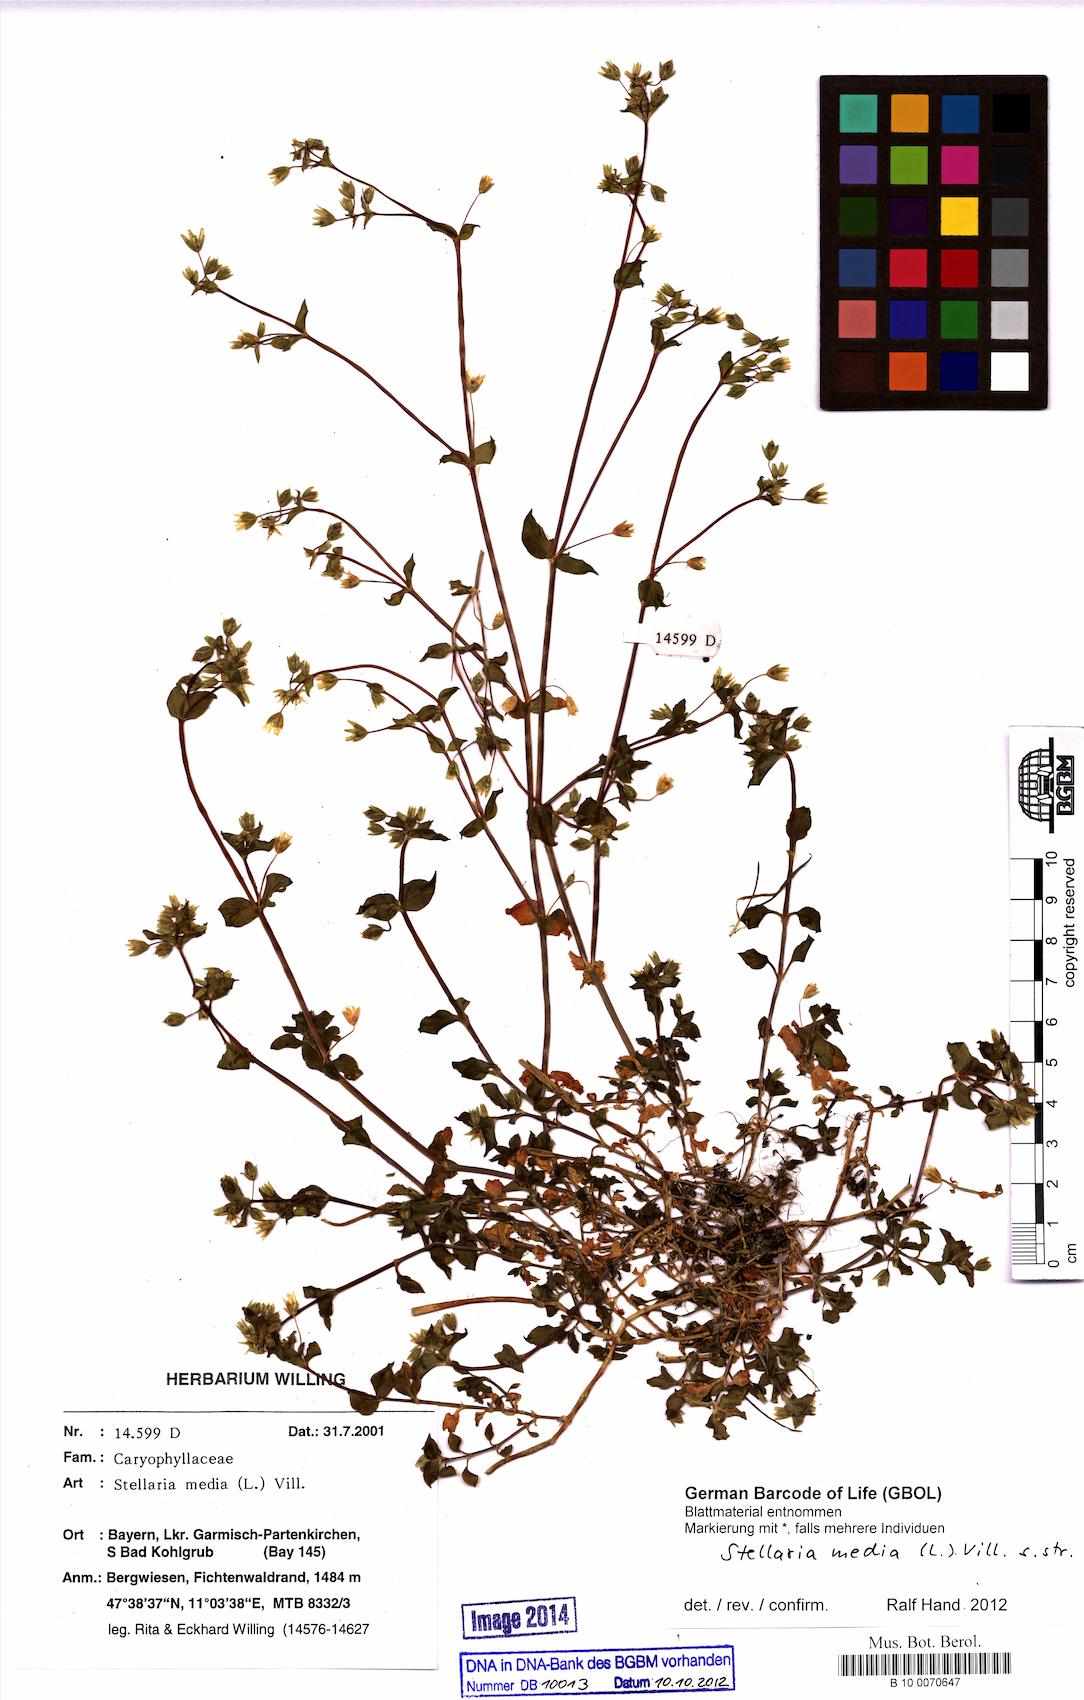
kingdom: Plantae
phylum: Tracheophyta
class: Magnoliopsida
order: Caryophyllales
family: Caryophyllaceae
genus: Stellaria
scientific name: Stellaria media
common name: Common chickweed
